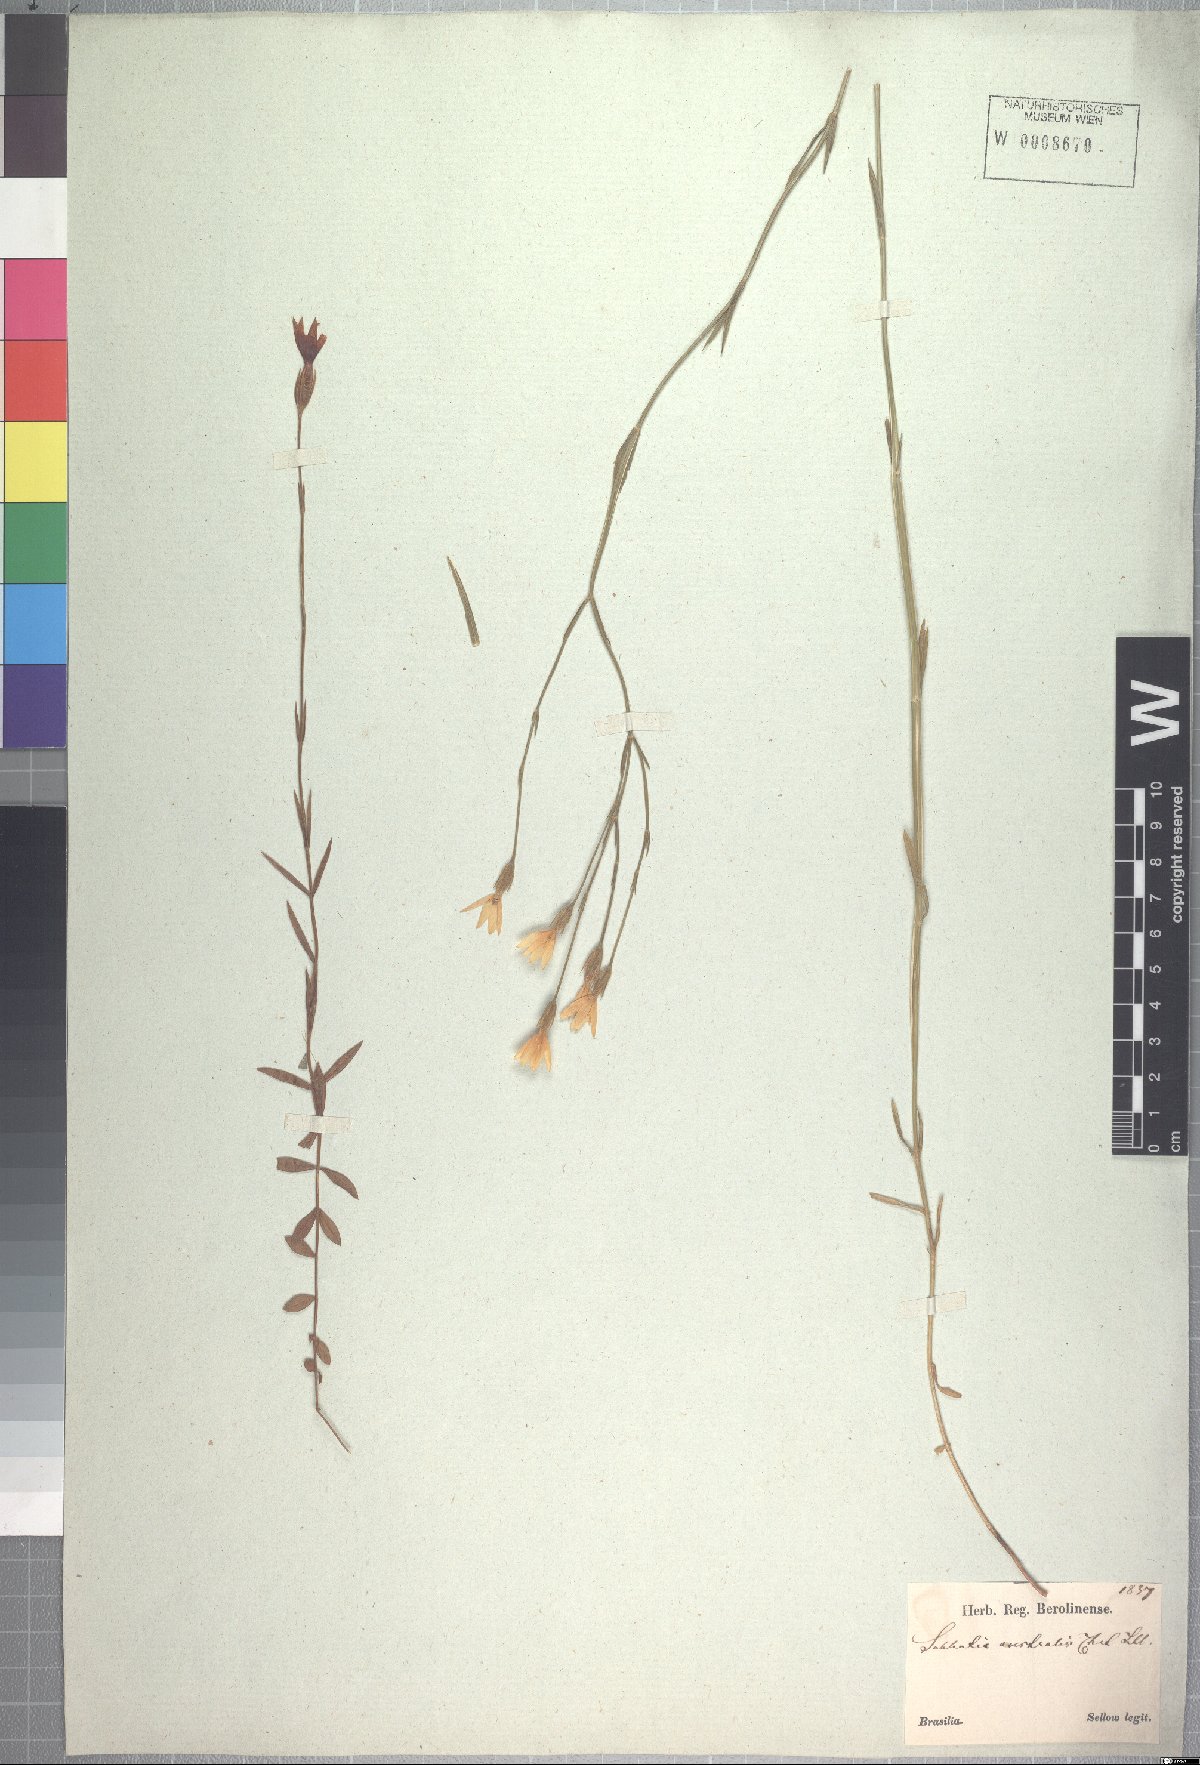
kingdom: Plantae
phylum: Tracheophyta
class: Magnoliopsida
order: Gentianales
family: Gentianaceae
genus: Zygostigma
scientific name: Zygostigma australe
